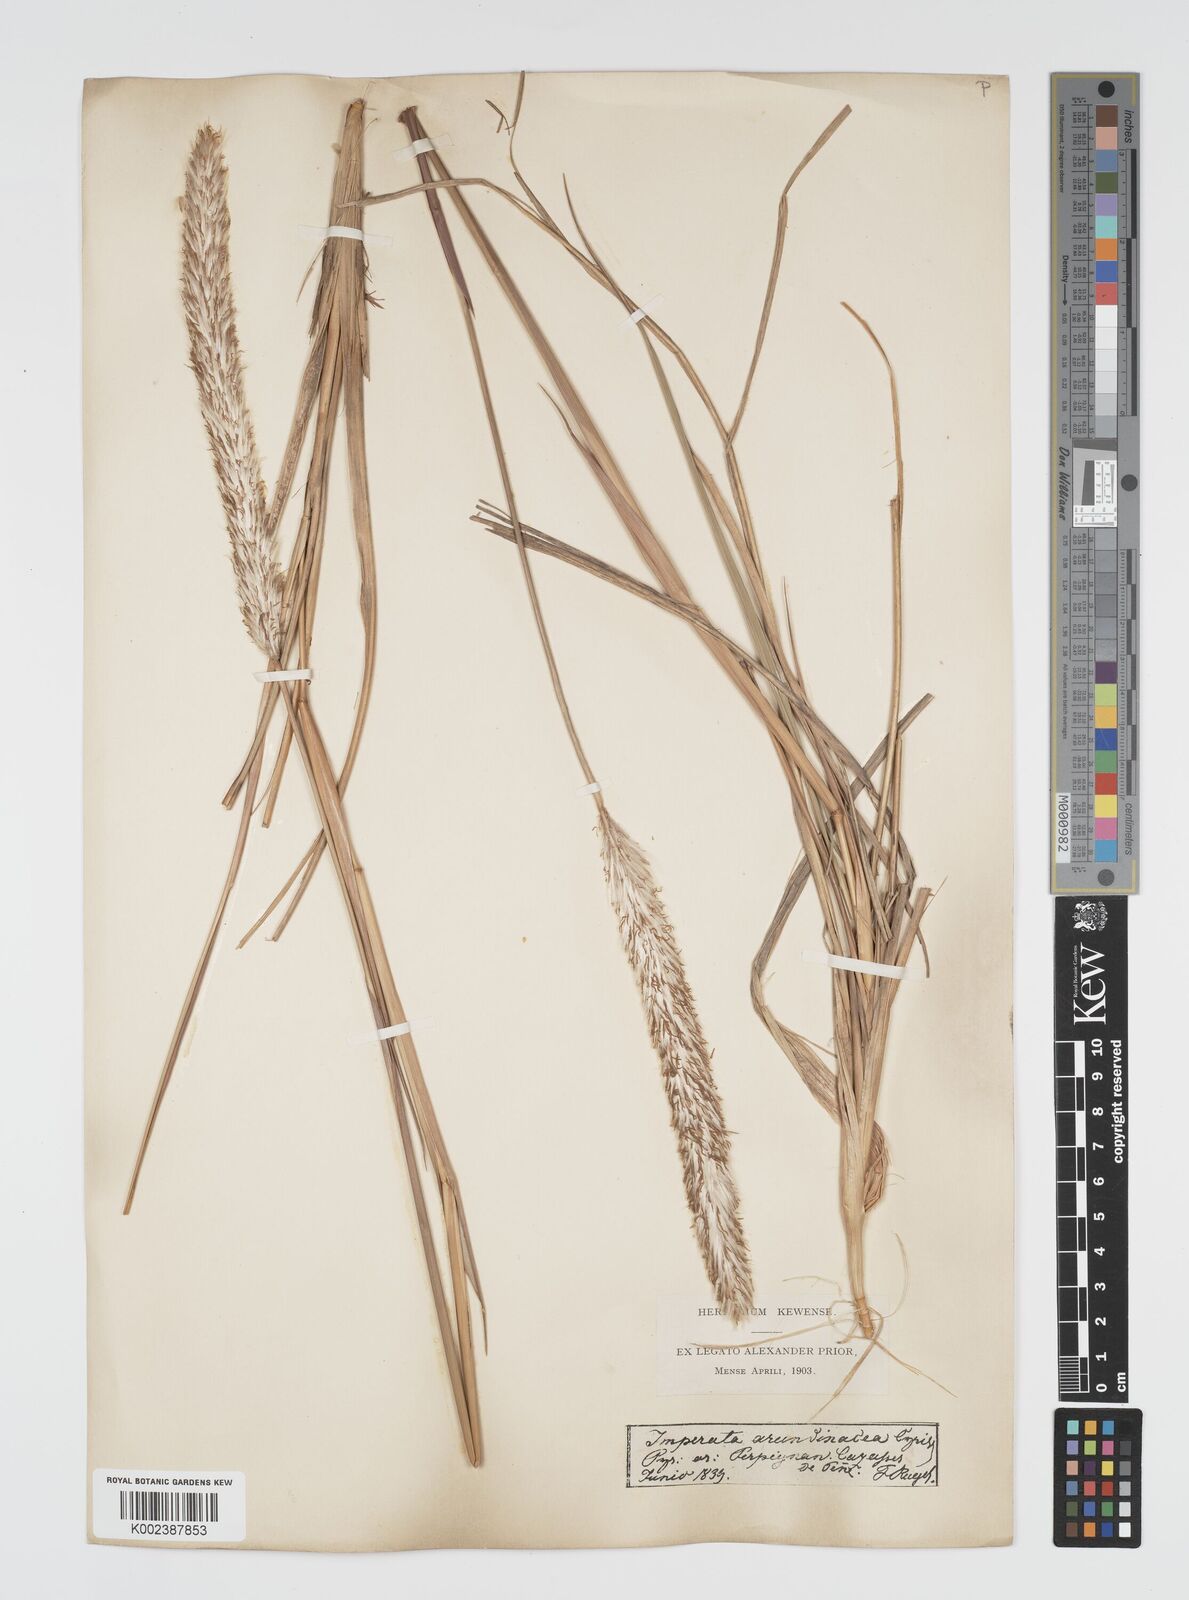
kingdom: Plantae
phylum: Tracheophyta
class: Liliopsida
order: Poales
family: Poaceae
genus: Imperata
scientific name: Imperata cylindrica
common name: Cogongrass
